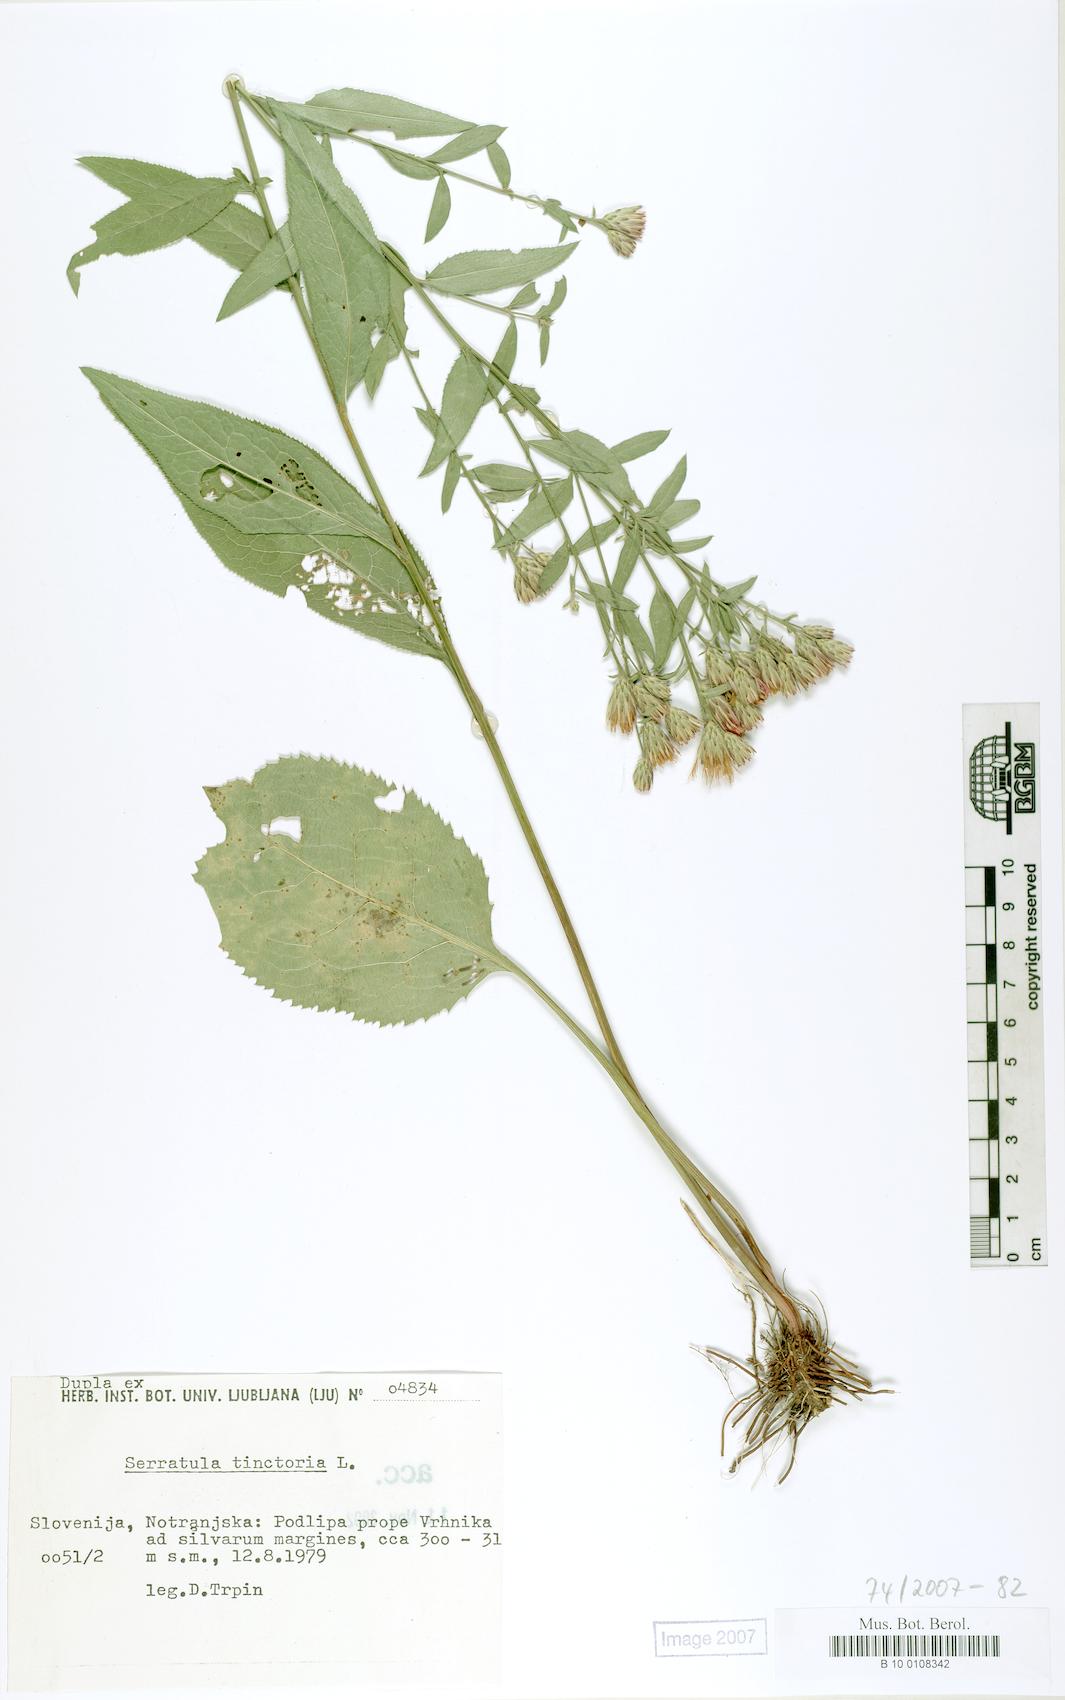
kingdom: Plantae
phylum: Tracheophyta
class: Magnoliopsida
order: Asterales
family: Asteraceae
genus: Serratula
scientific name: Serratula tinctoria
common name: Saw-wort
